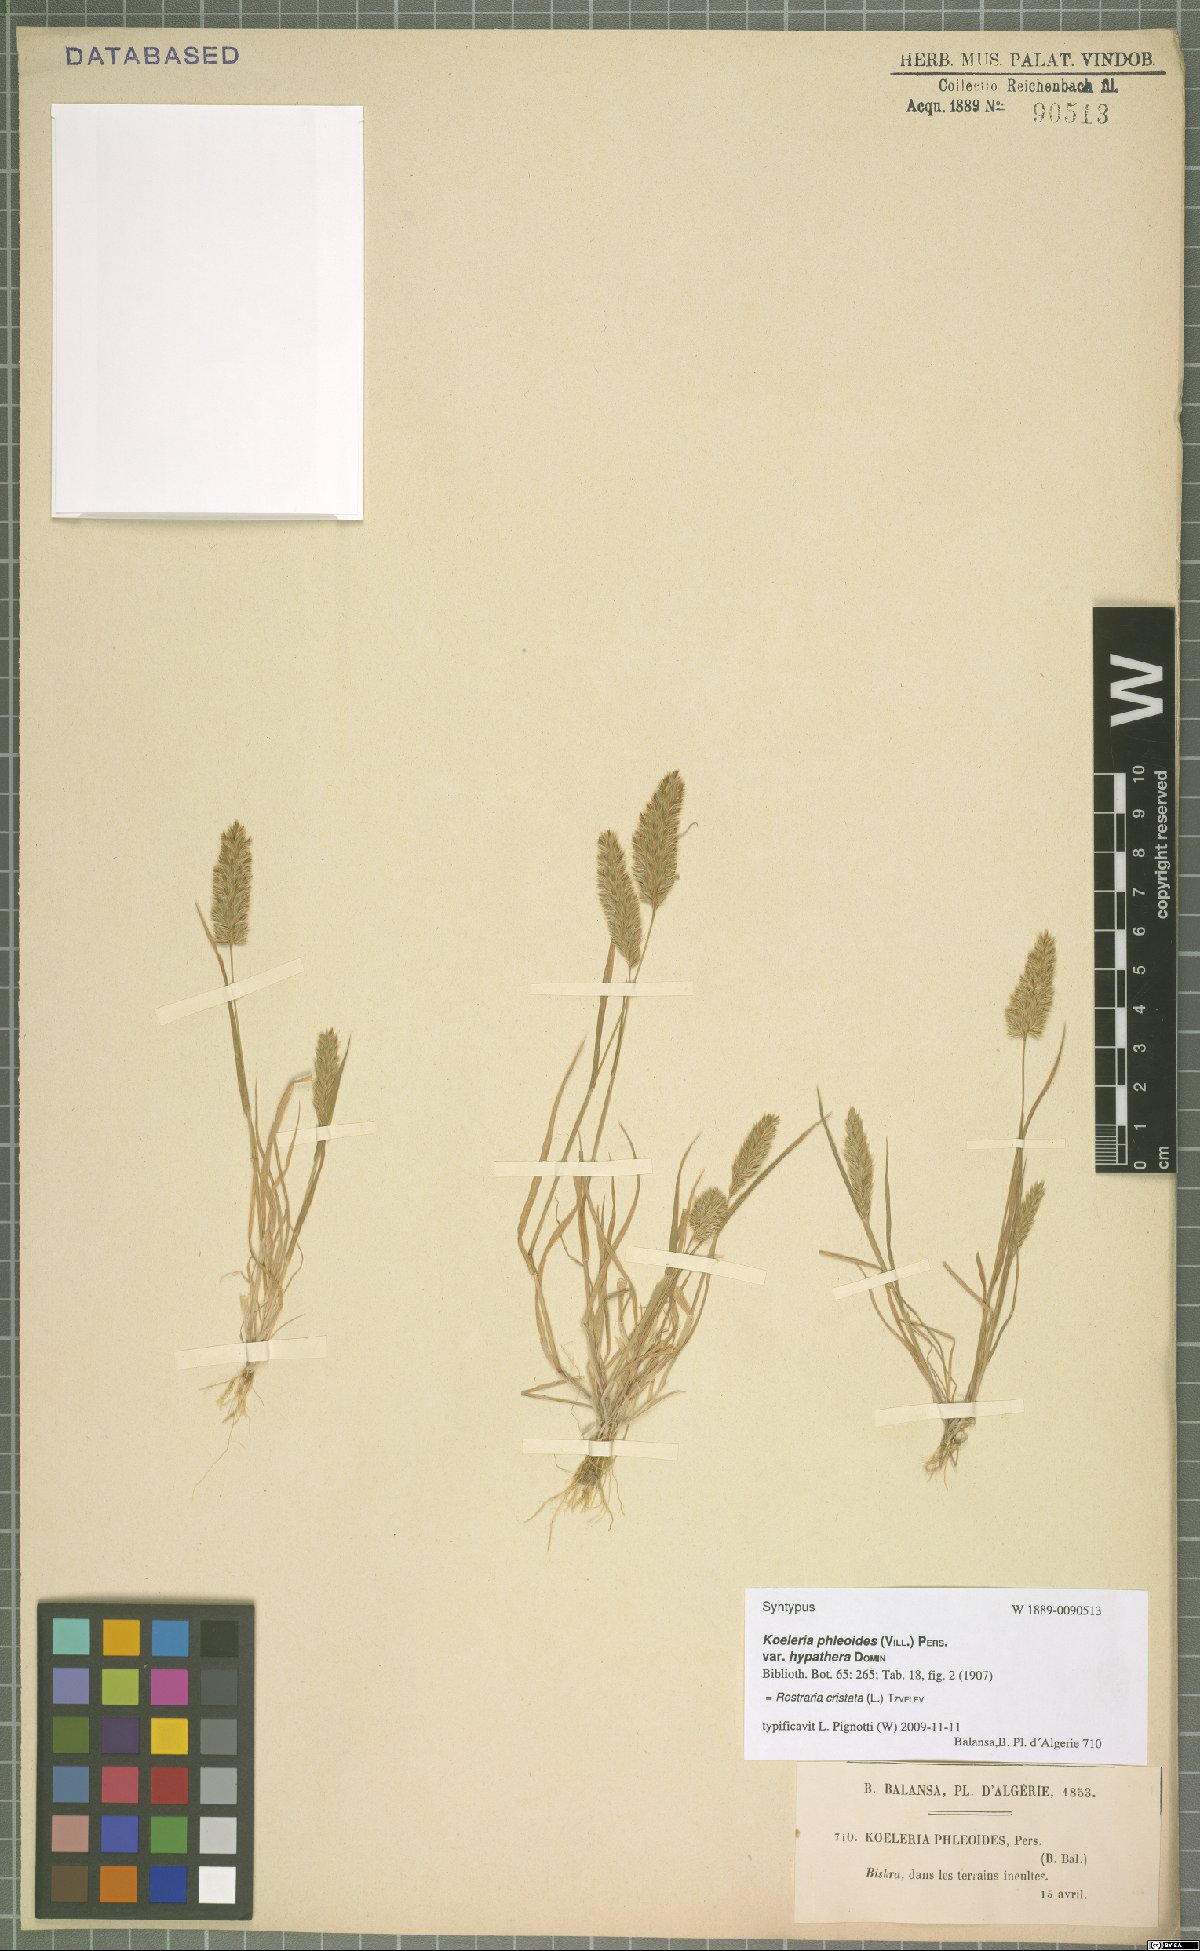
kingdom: Plantae
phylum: Tracheophyta
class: Liliopsida
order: Poales
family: Poaceae
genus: Rostraria
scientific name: Rostraria cristata
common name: Mediterranean hair-grass
